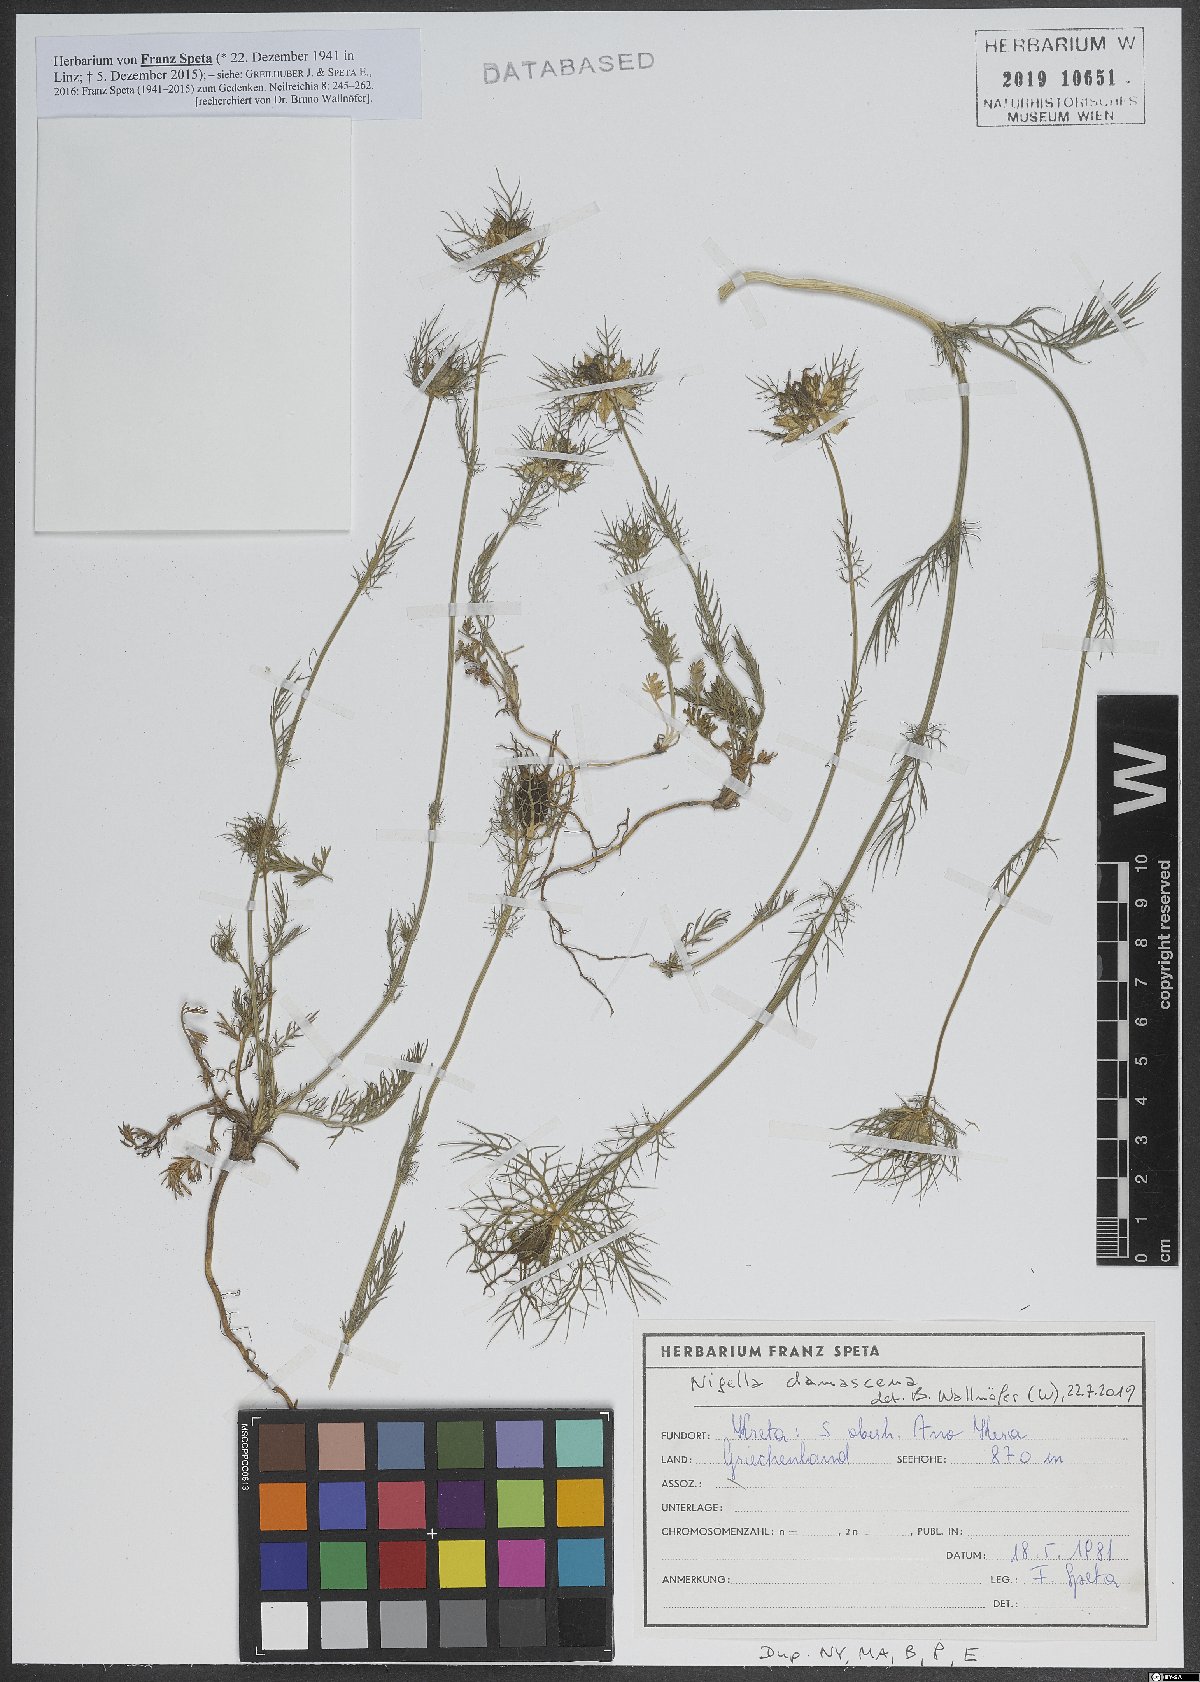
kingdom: Plantae
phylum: Tracheophyta
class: Magnoliopsida
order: Ranunculales
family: Ranunculaceae
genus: Nigella
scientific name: Nigella damascena
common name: Love-in-a-mist
